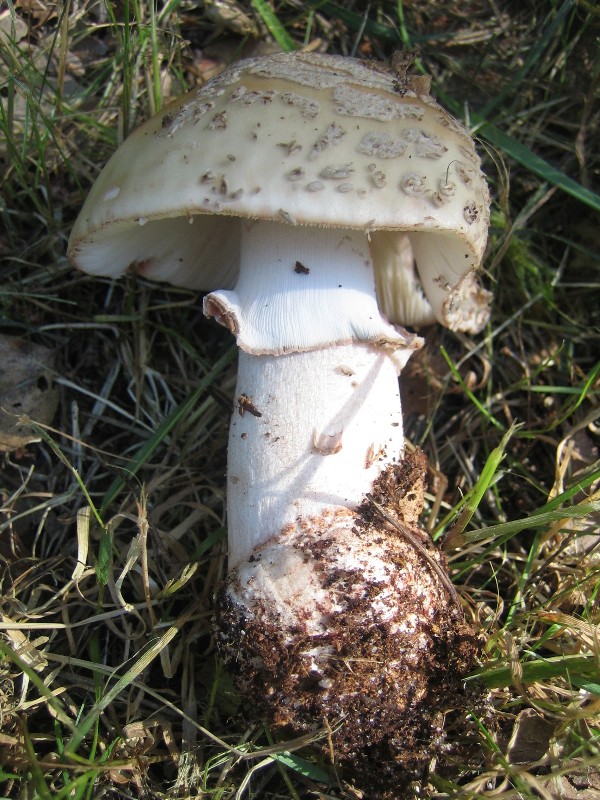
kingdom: Fungi
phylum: Basidiomycota
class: Agaricomycetes
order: Agaricales
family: Amanitaceae
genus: Amanita
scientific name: Amanita rubescens
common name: rødmende fluesvamp
